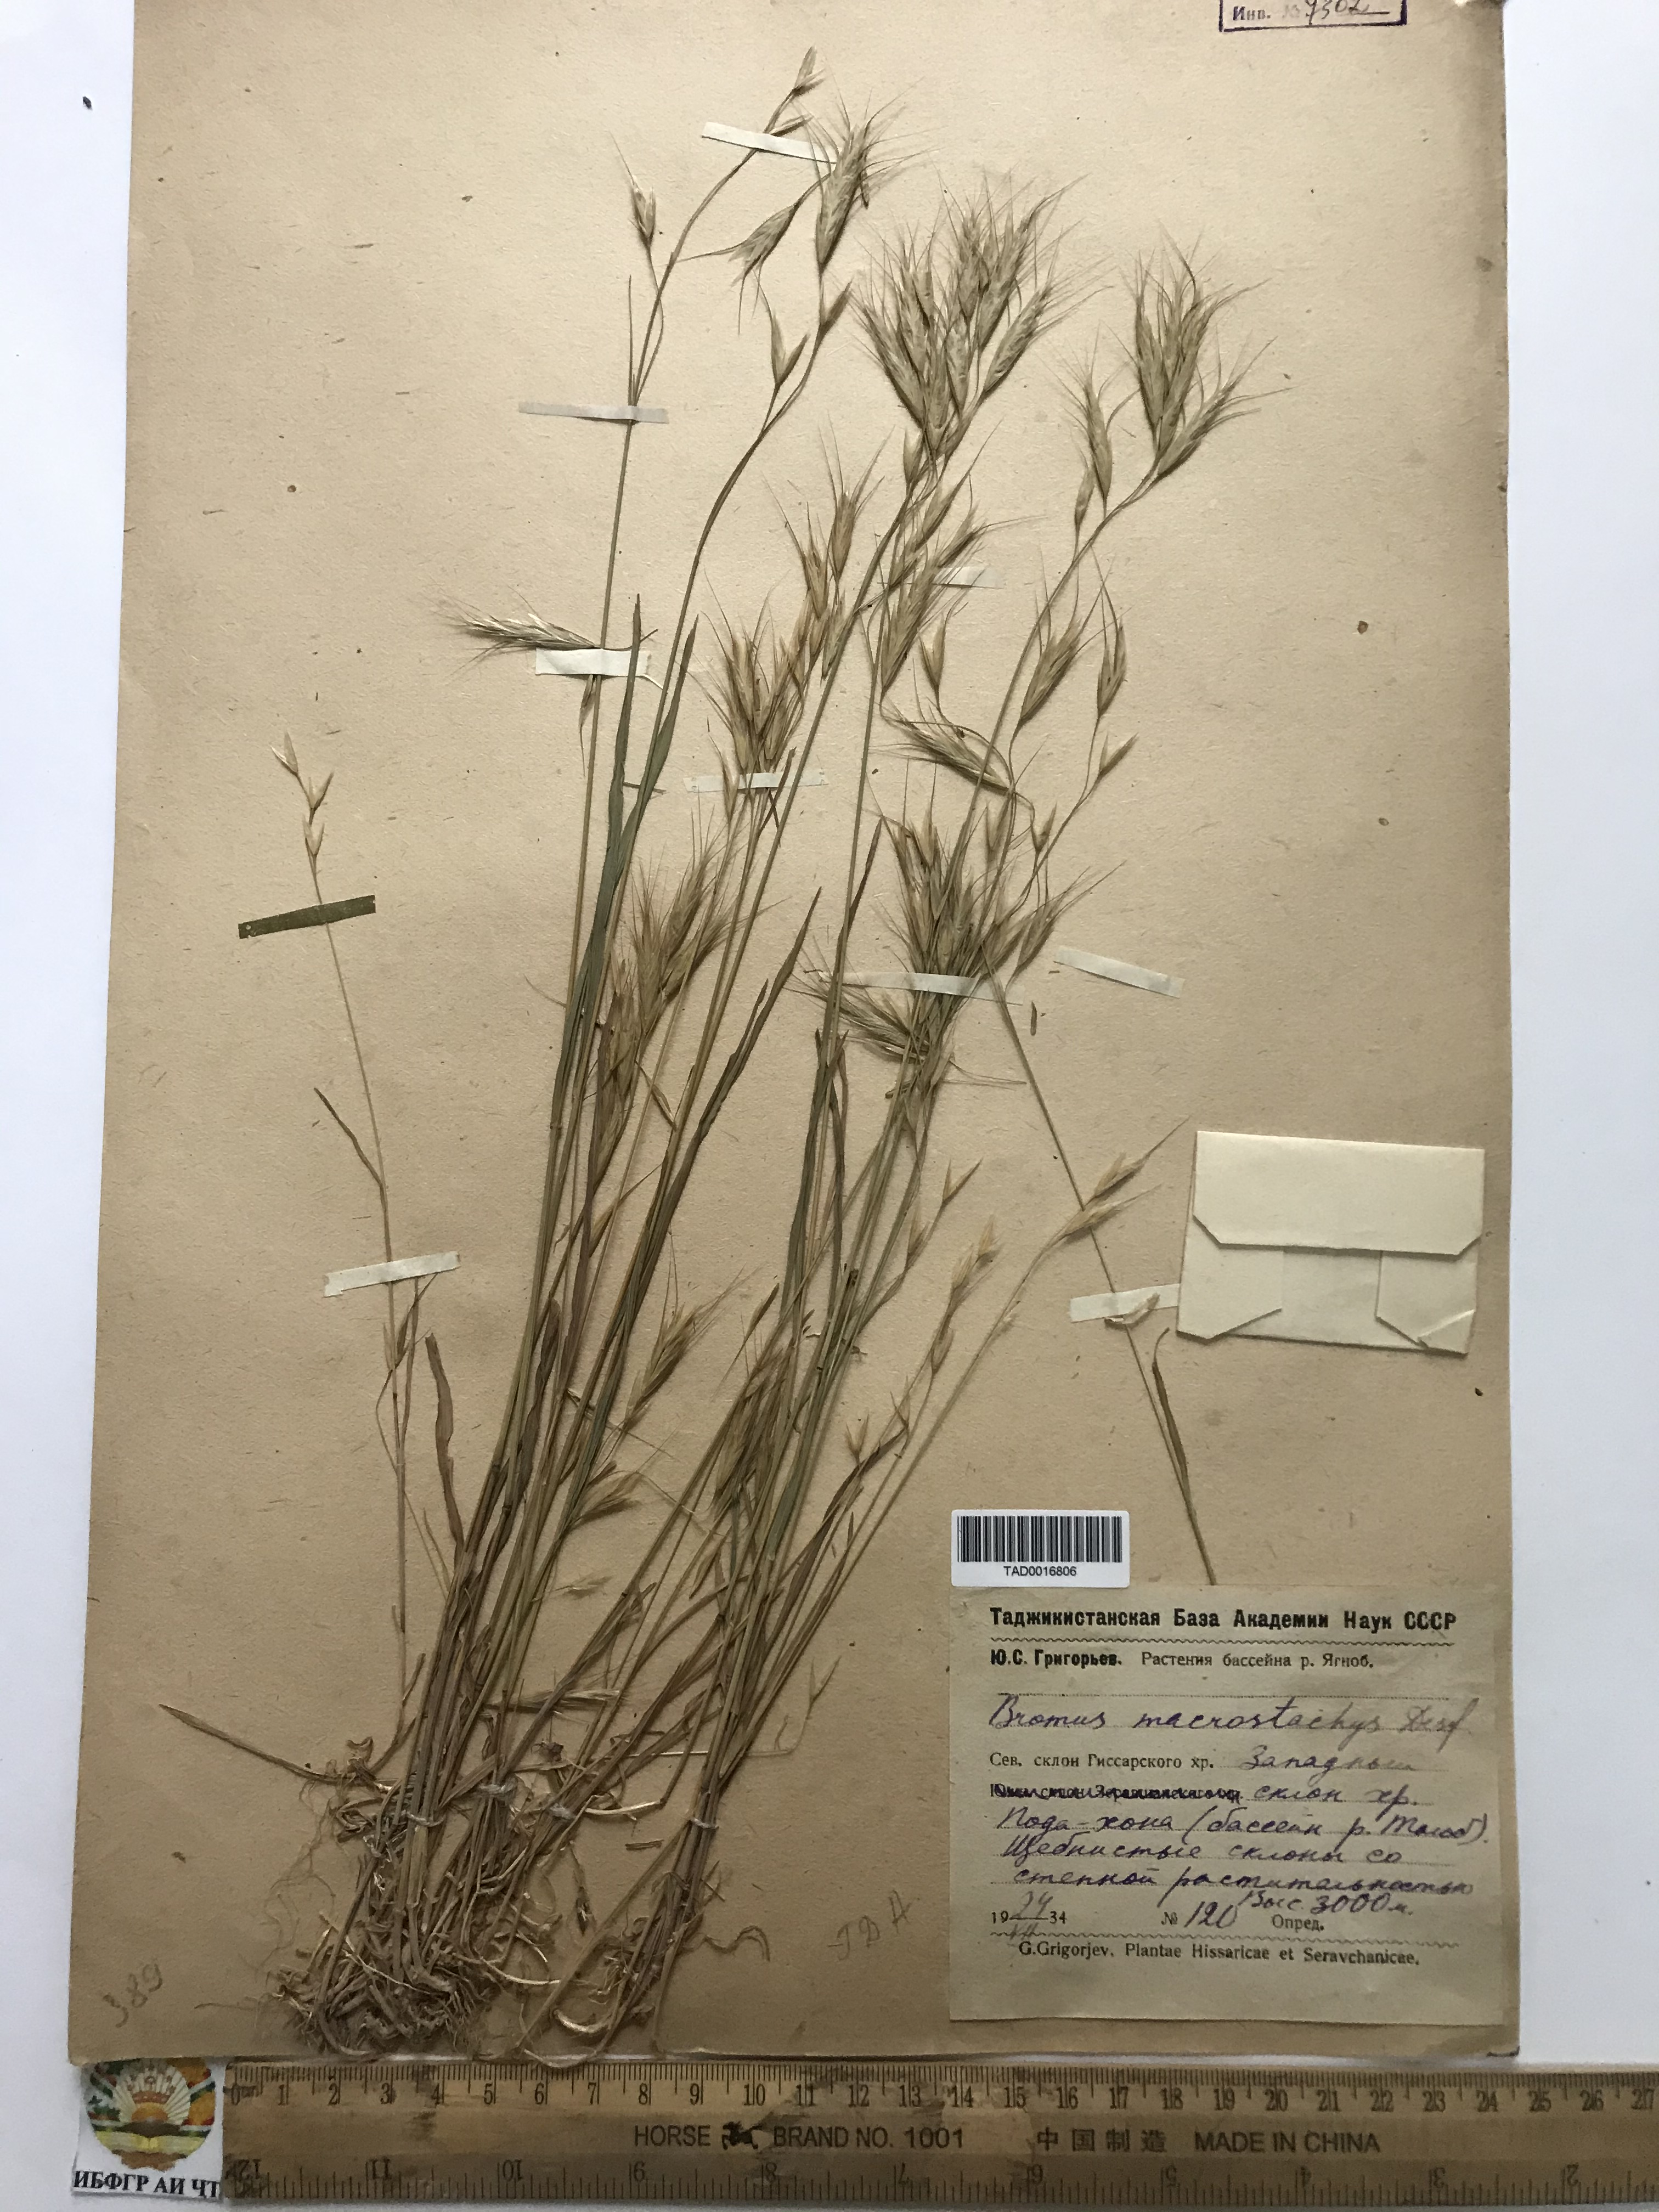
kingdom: Plantae
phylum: Tracheophyta
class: Liliopsida
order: Poales
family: Poaceae
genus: Bromus
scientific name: Bromus lanceolatus
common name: Mediterranean brome
